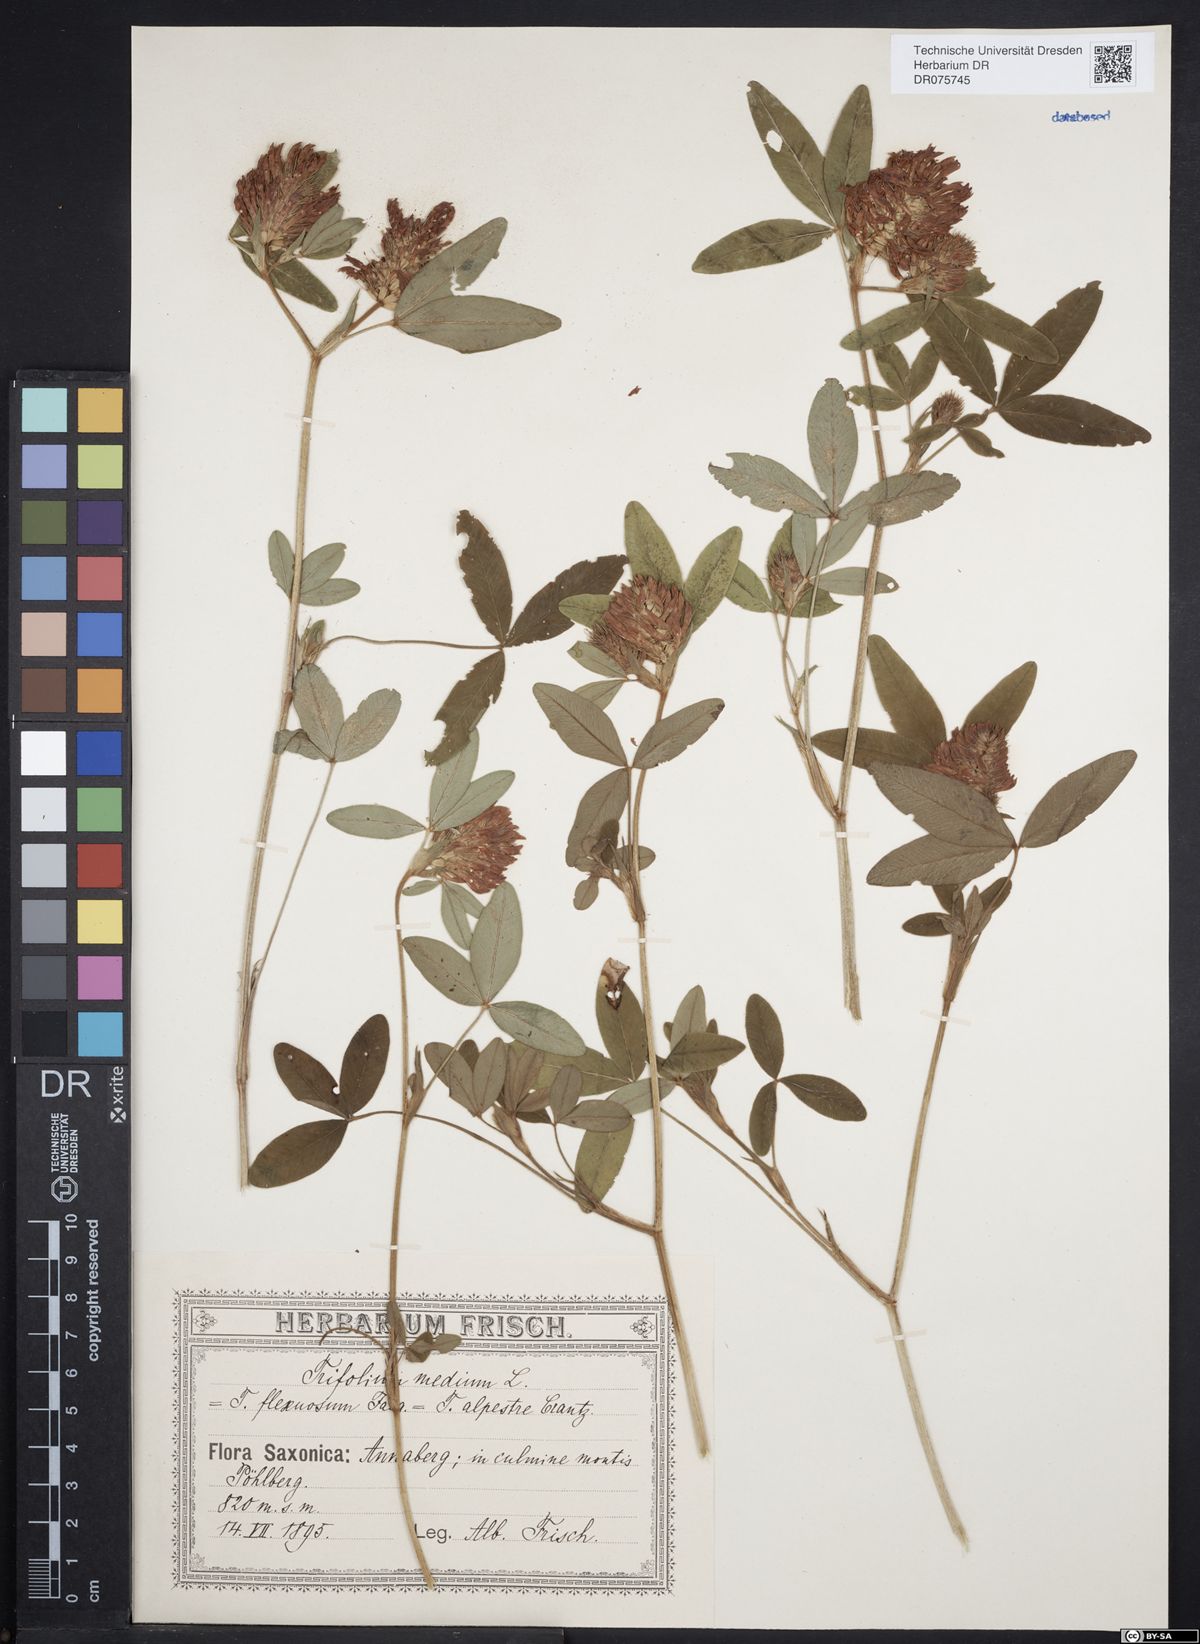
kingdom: Plantae
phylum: Tracheophyta
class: Magnoliopsida
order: Fabales
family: Fabaceae
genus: Trifolium
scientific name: Trifolium medium
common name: Zigzag clover
